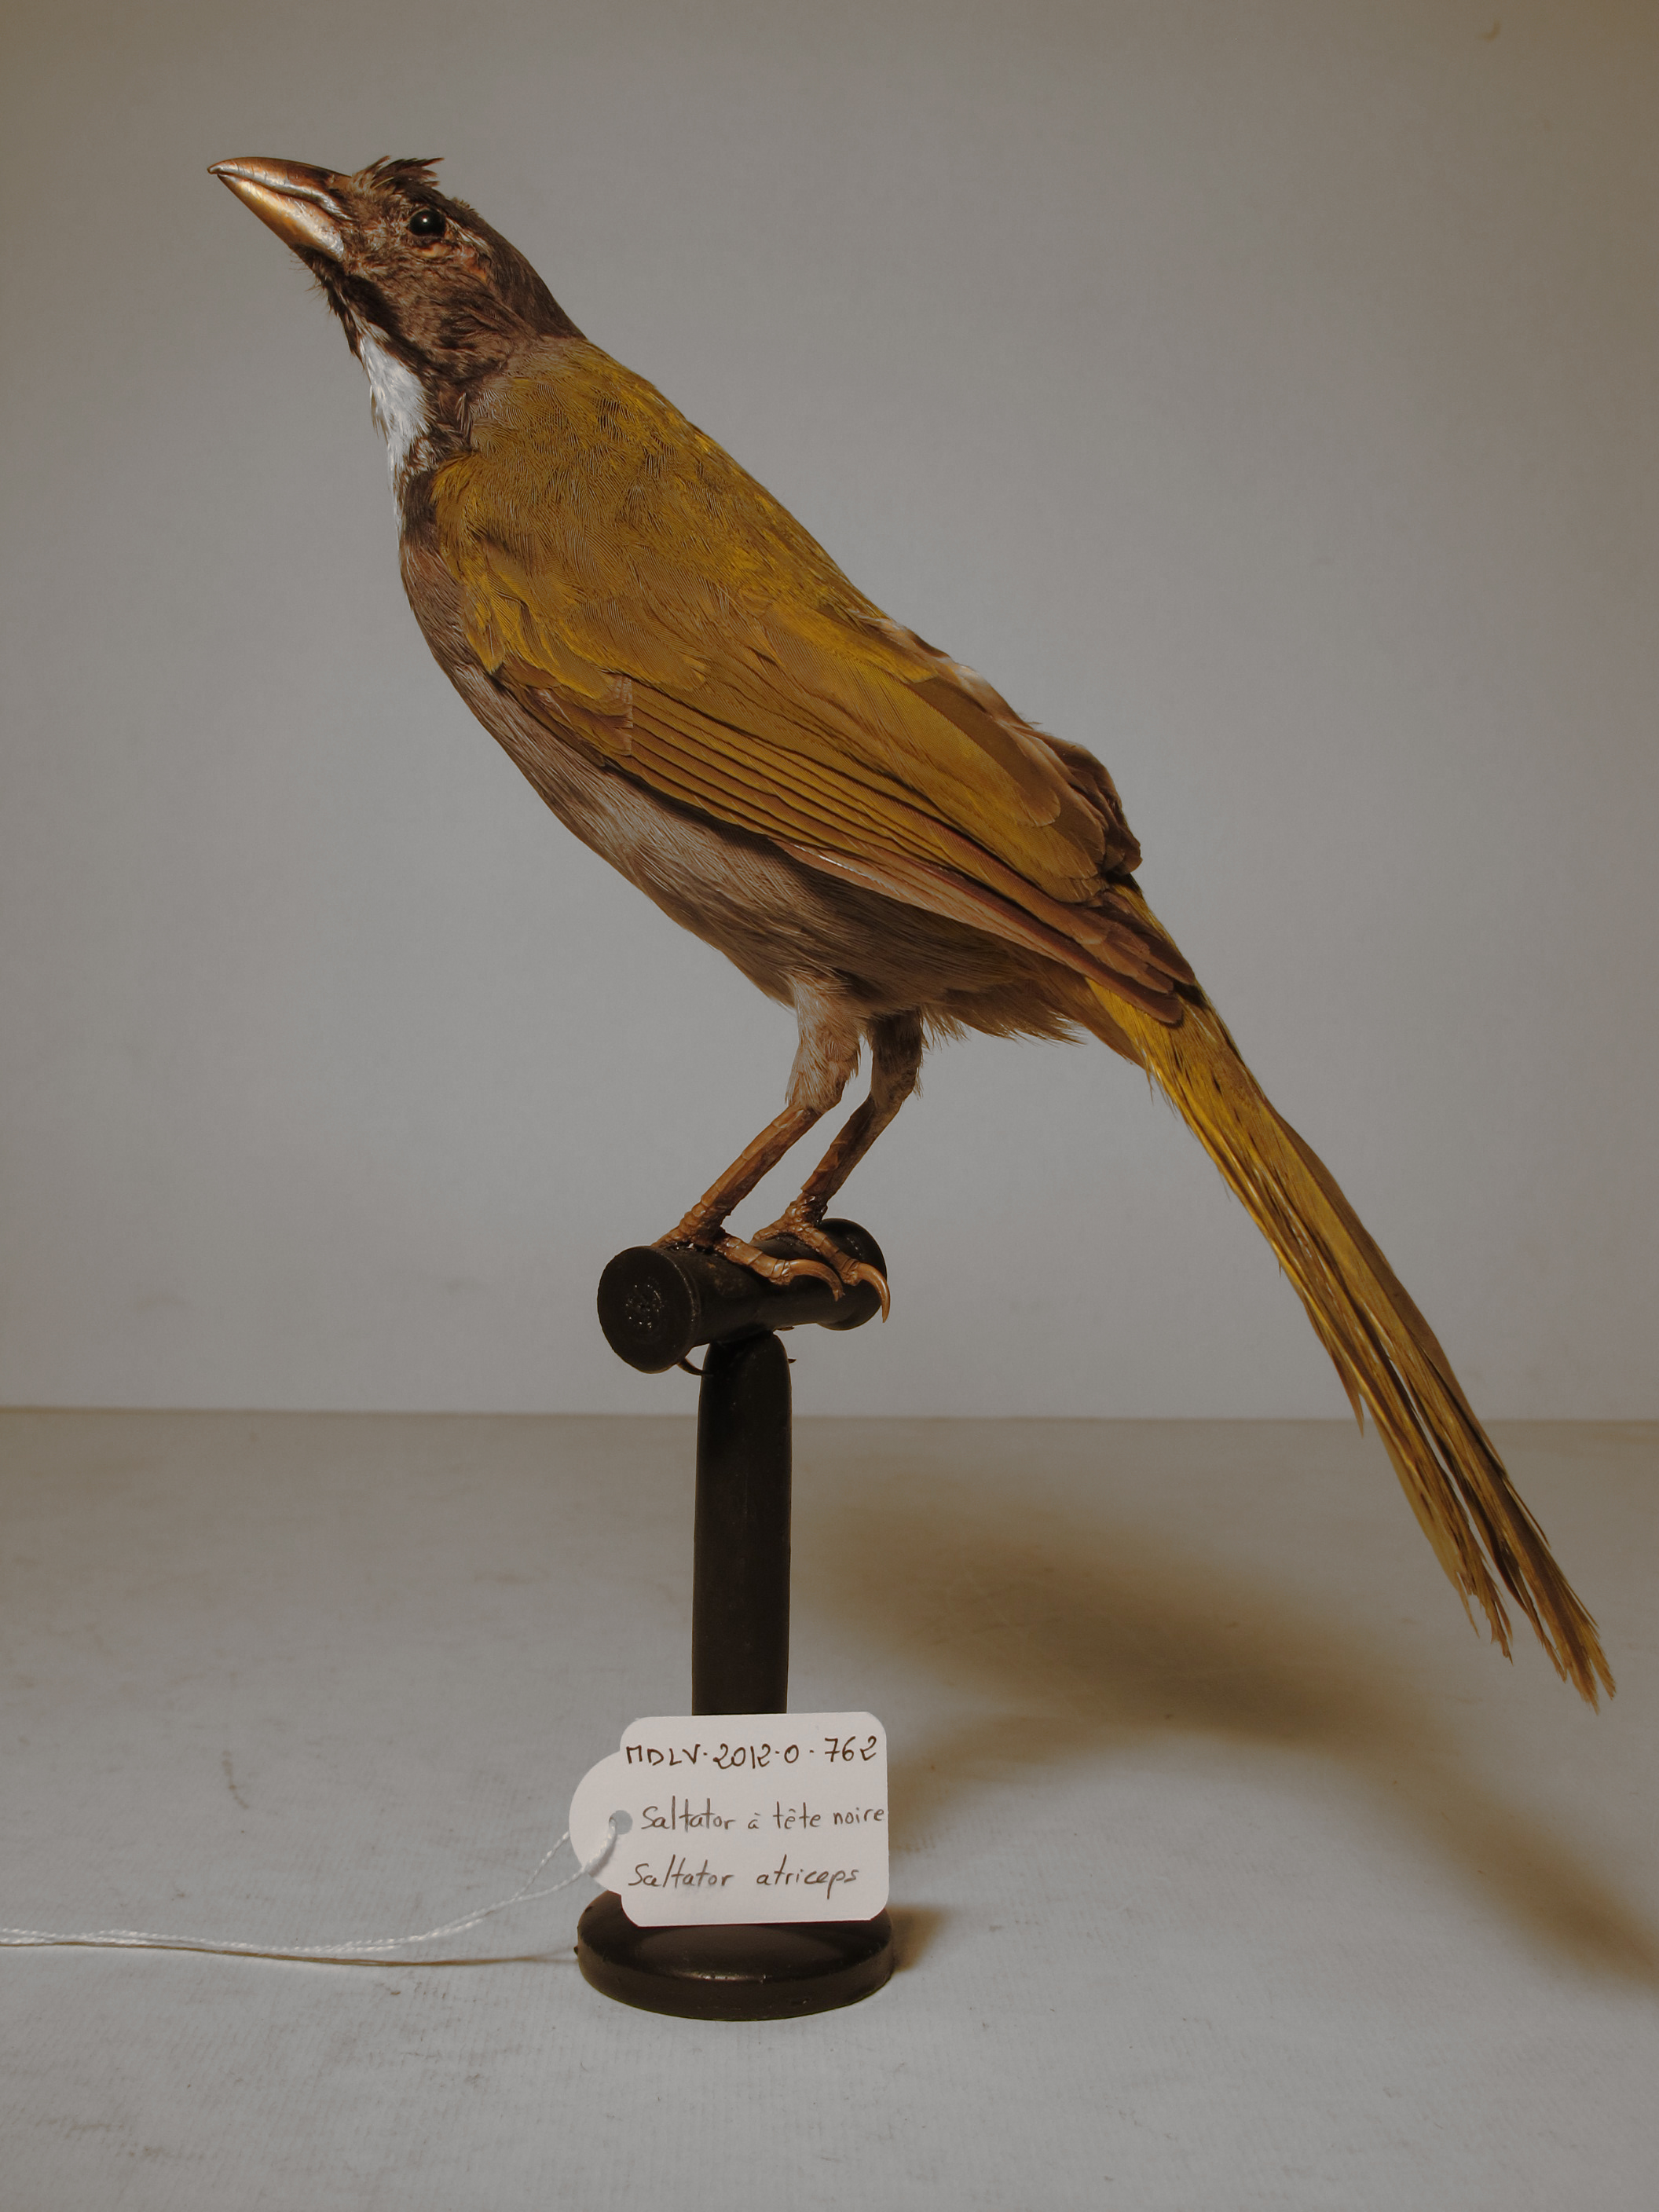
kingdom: Animalia
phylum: Chordata
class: Aves
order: Passeriformes
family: Thraupidae
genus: Saltator
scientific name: Saltator atriceps
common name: Black-headed Saltator
